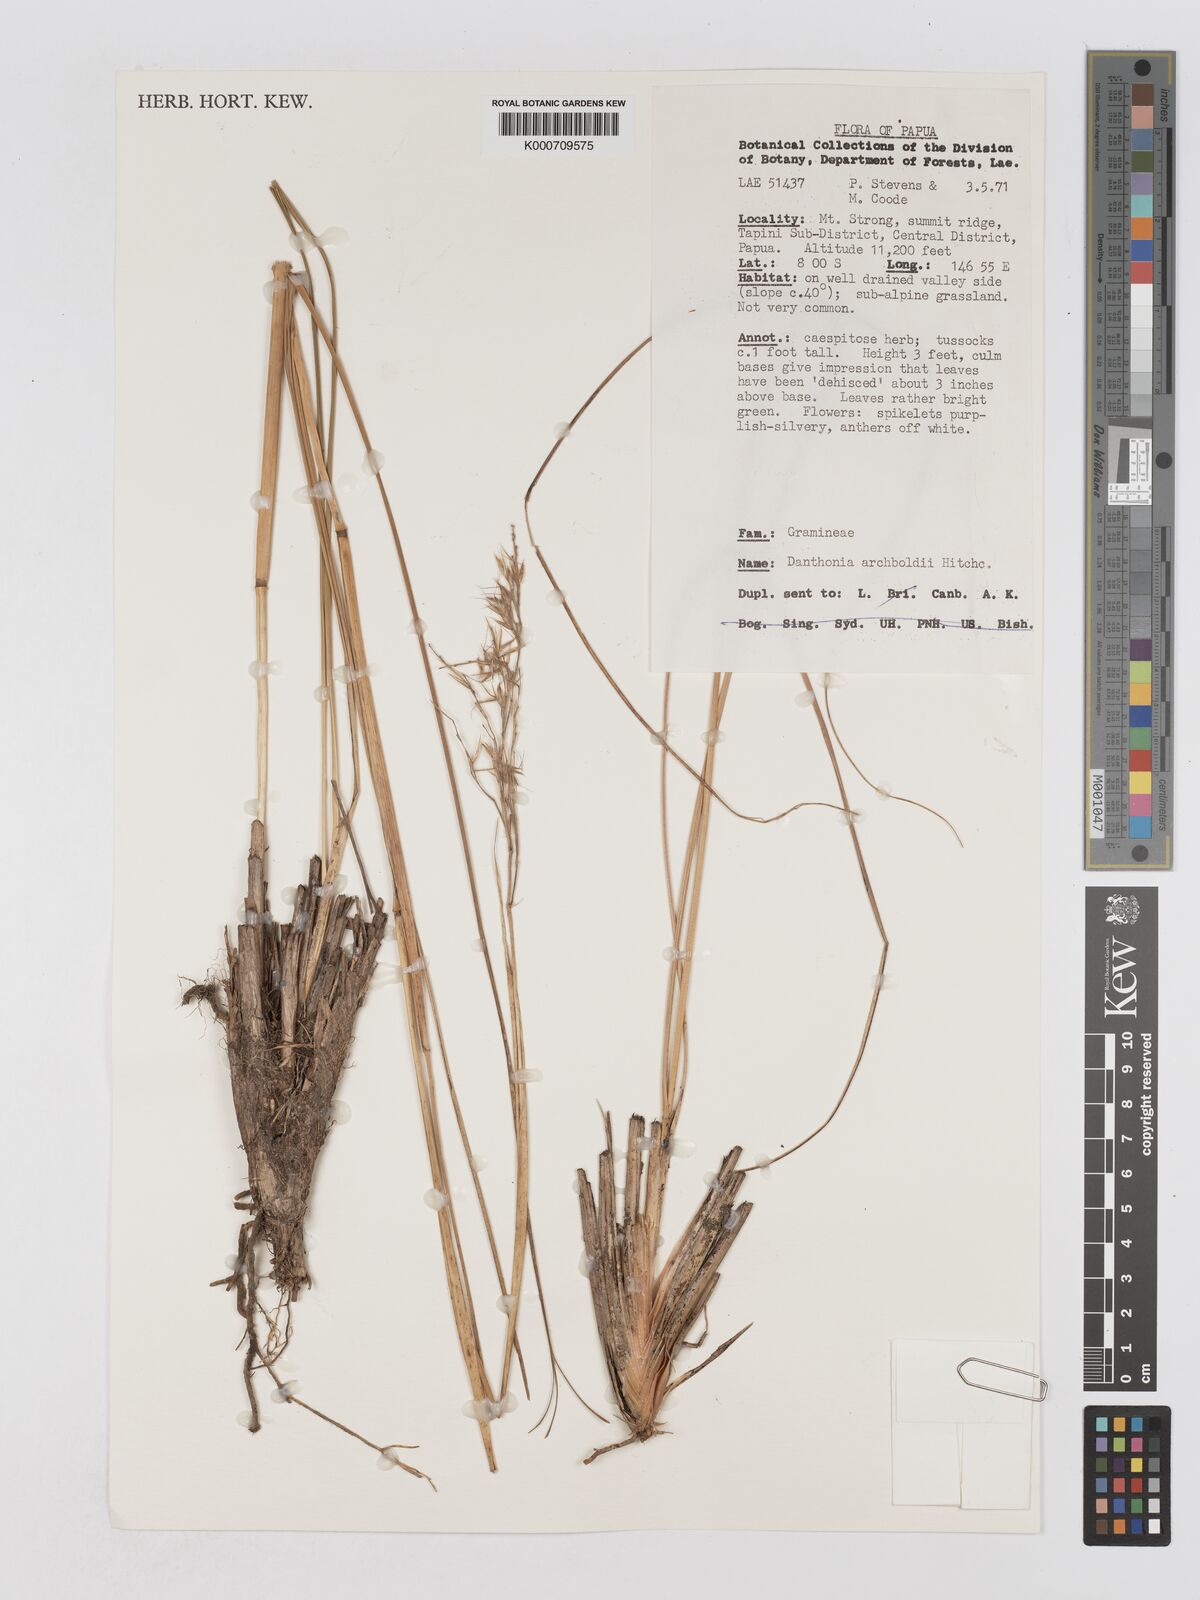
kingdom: Plantae
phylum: Tracheophyta
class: Liliopsida
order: Poales
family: Poaceae
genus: Chimaerochloa
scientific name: Chimaerochloa archboldii
